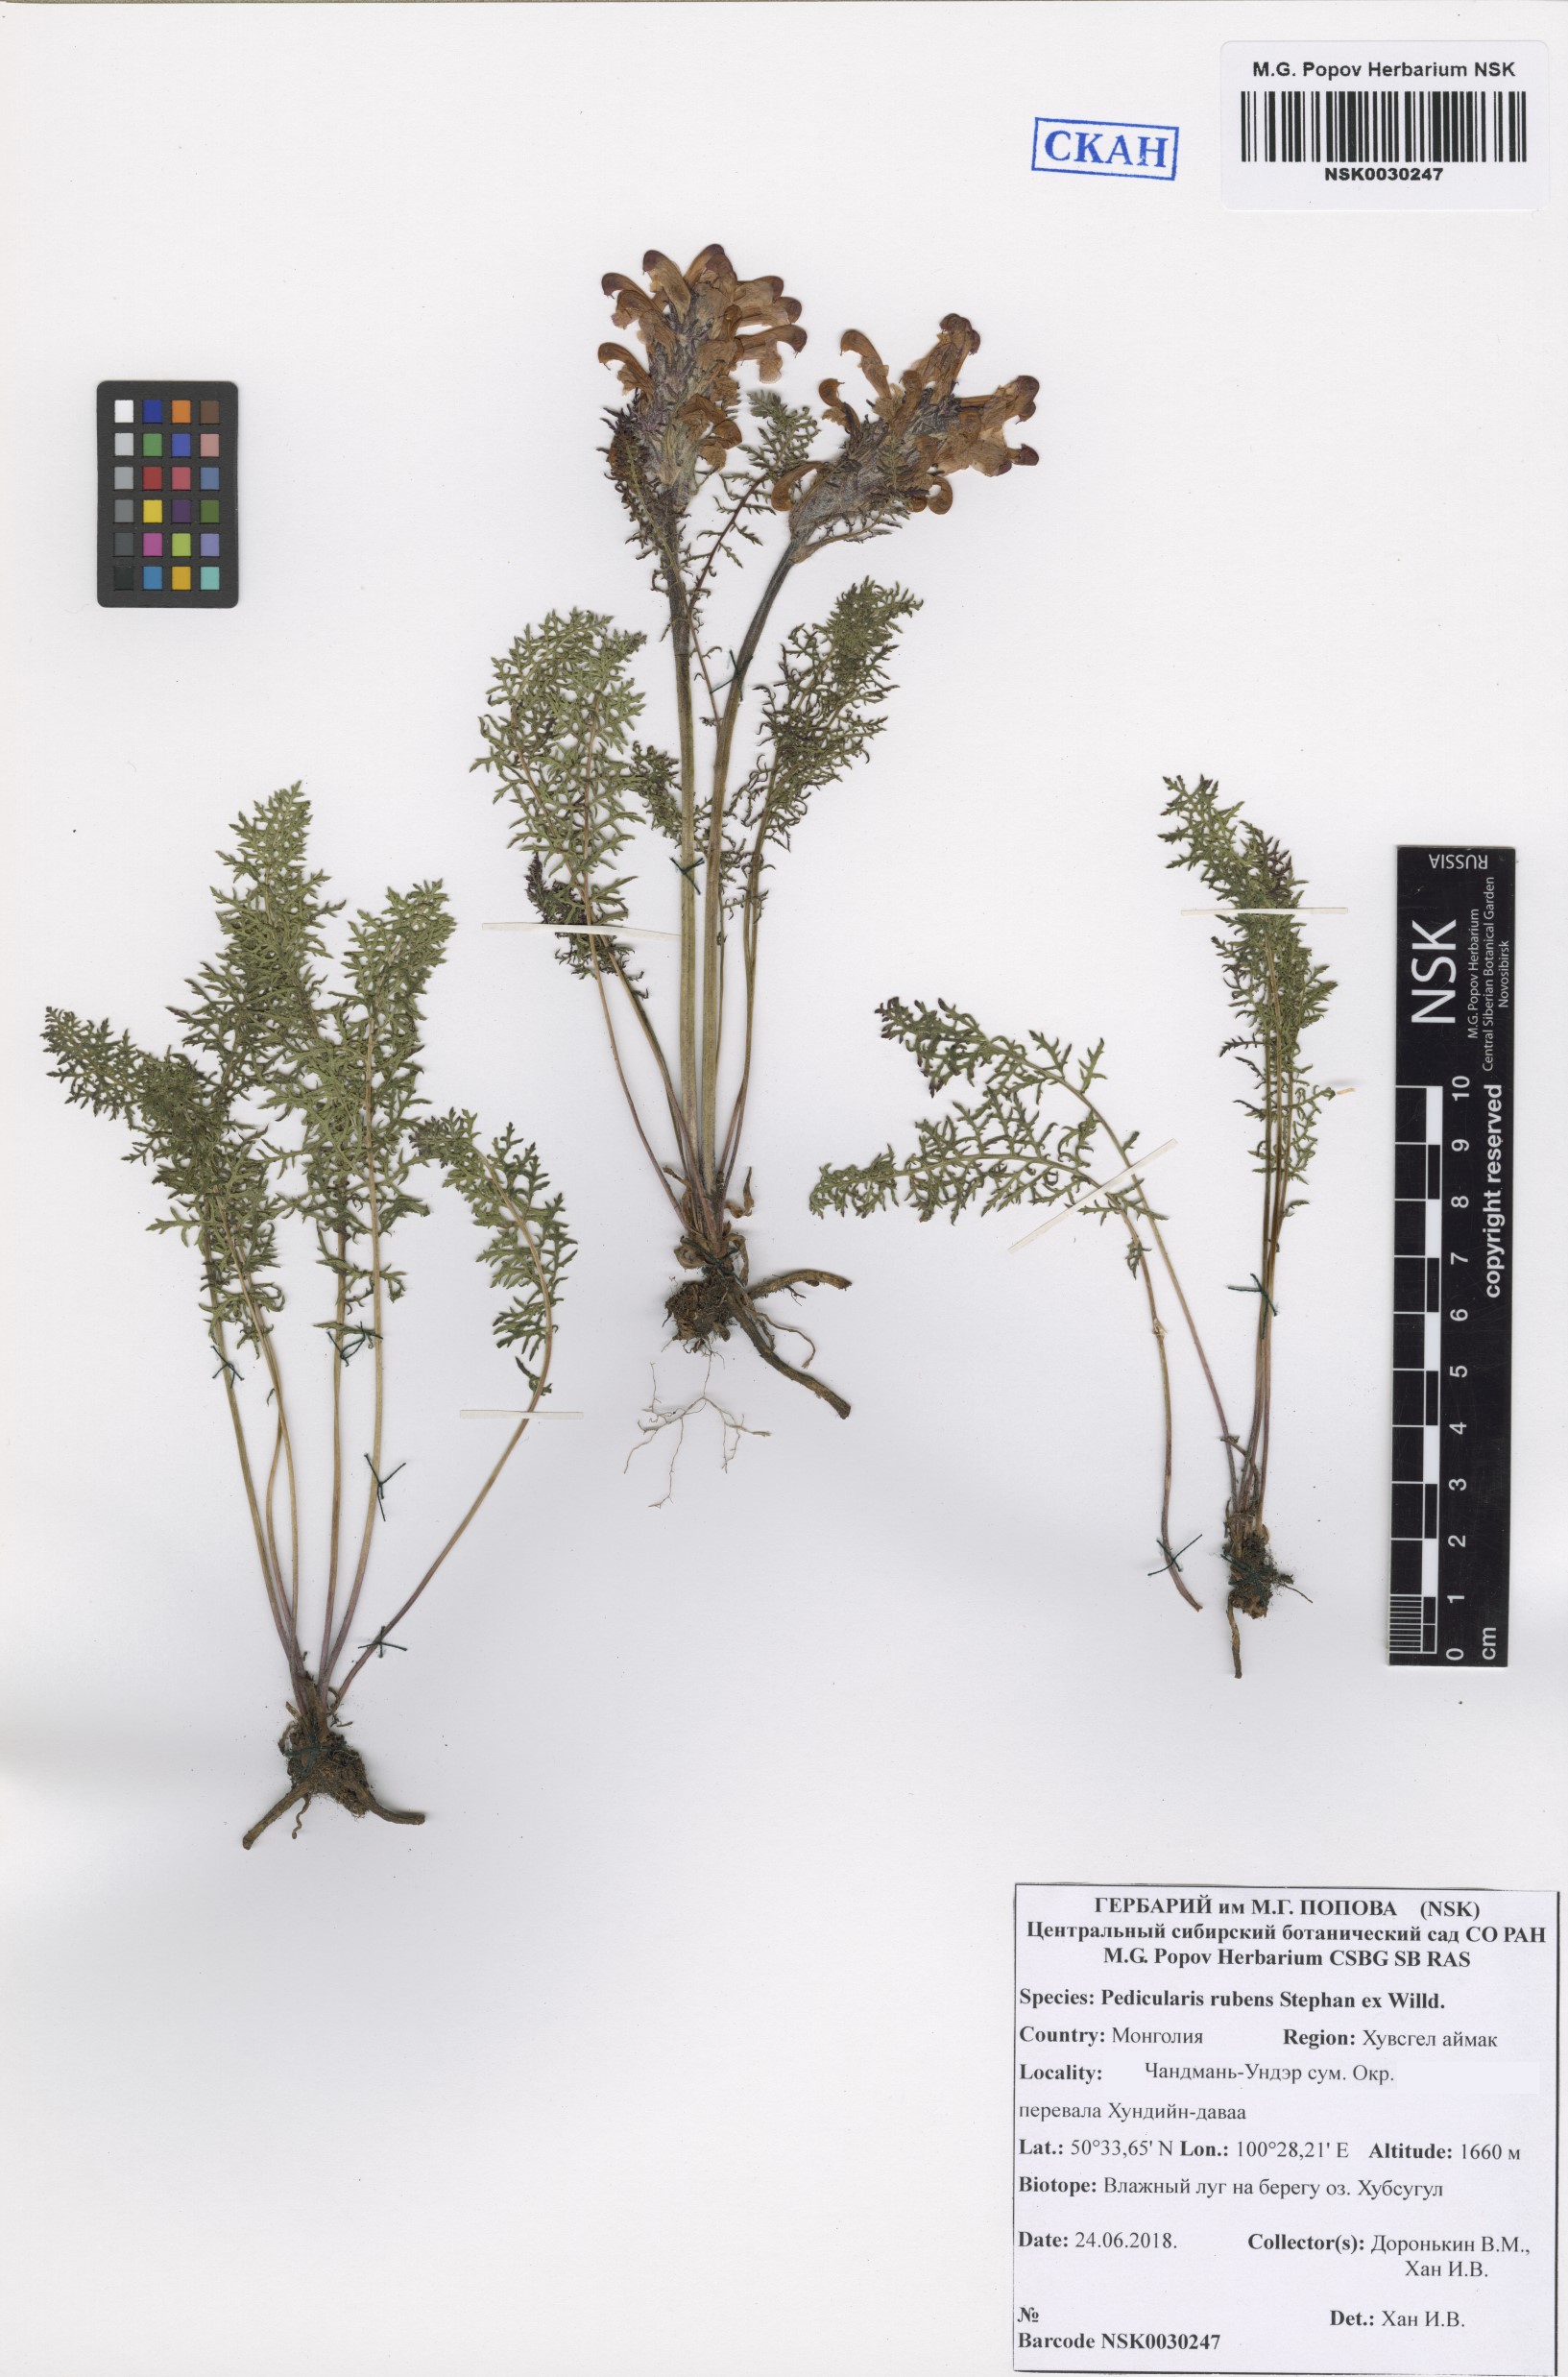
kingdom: Plantae
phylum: Tracheophyta
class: Magnoliopsida
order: Lamiales
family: Orobanchaceae
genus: Pedicularis
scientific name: Pedicularis rubens
